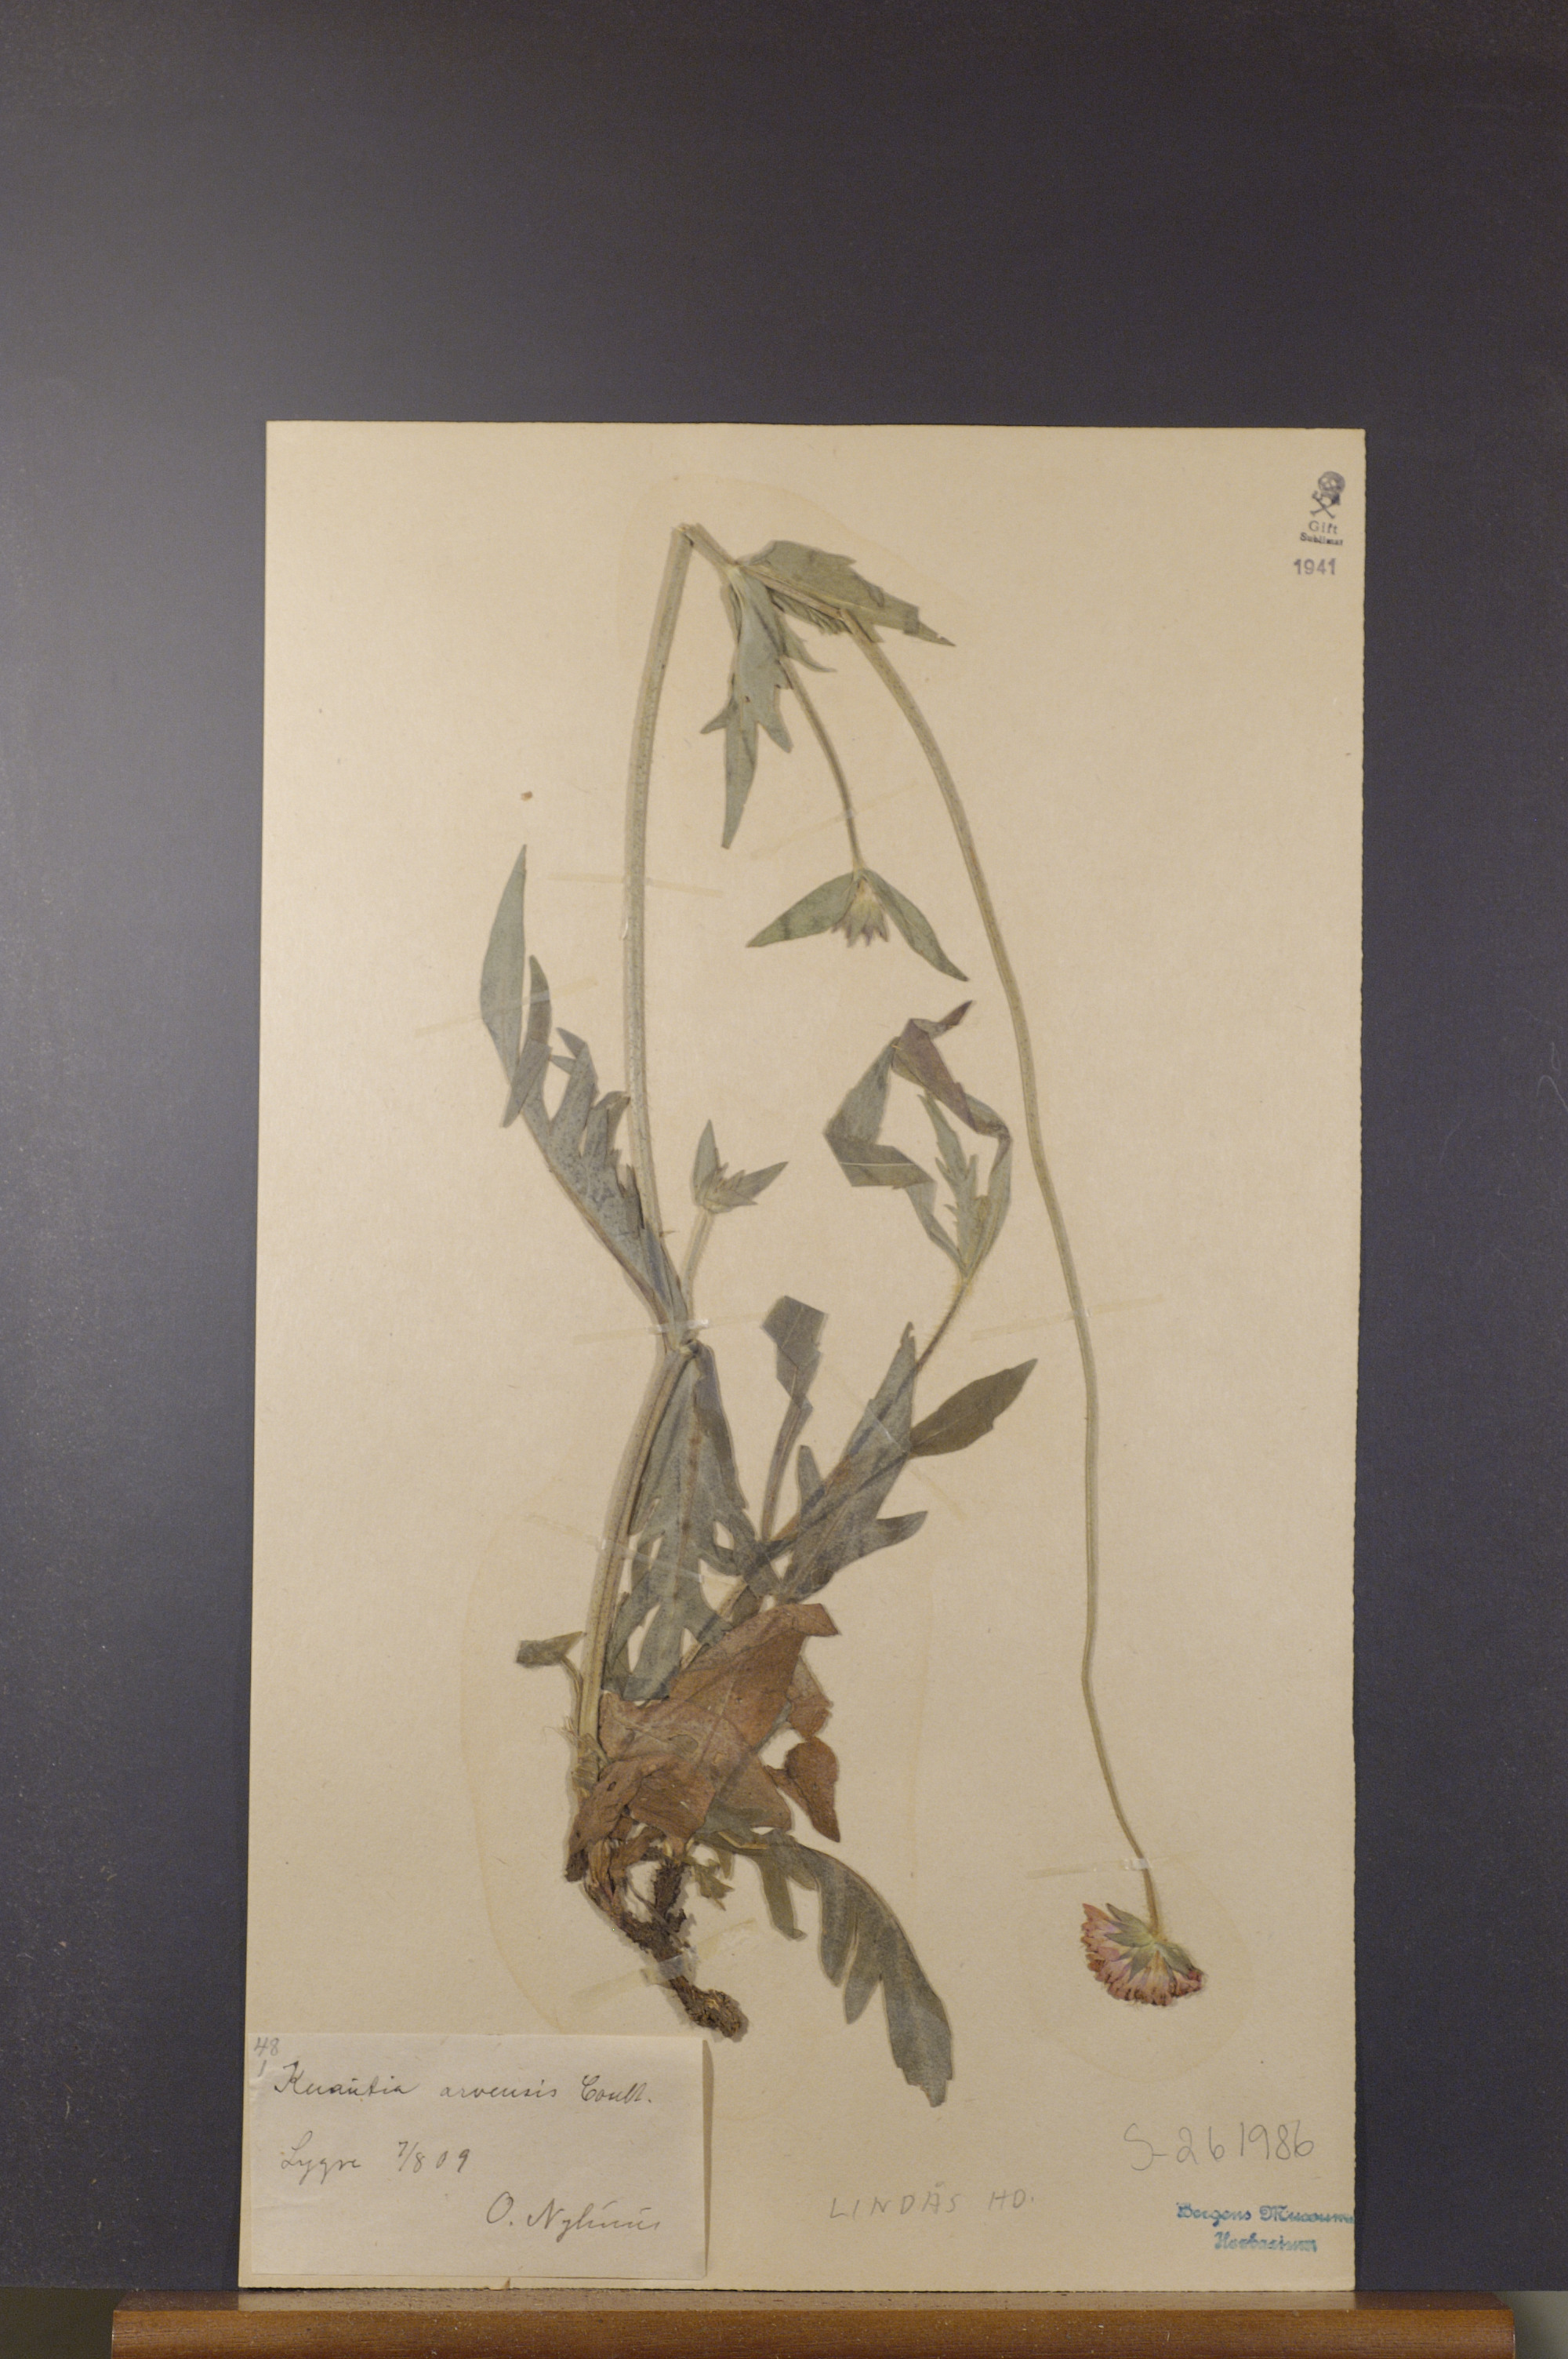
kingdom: Plantae
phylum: Tracheophyta
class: Magnoliopsida
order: Dipsacales
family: Caprifoliaceae
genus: Knautia
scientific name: Knautia arvensis
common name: Field scabiosa
